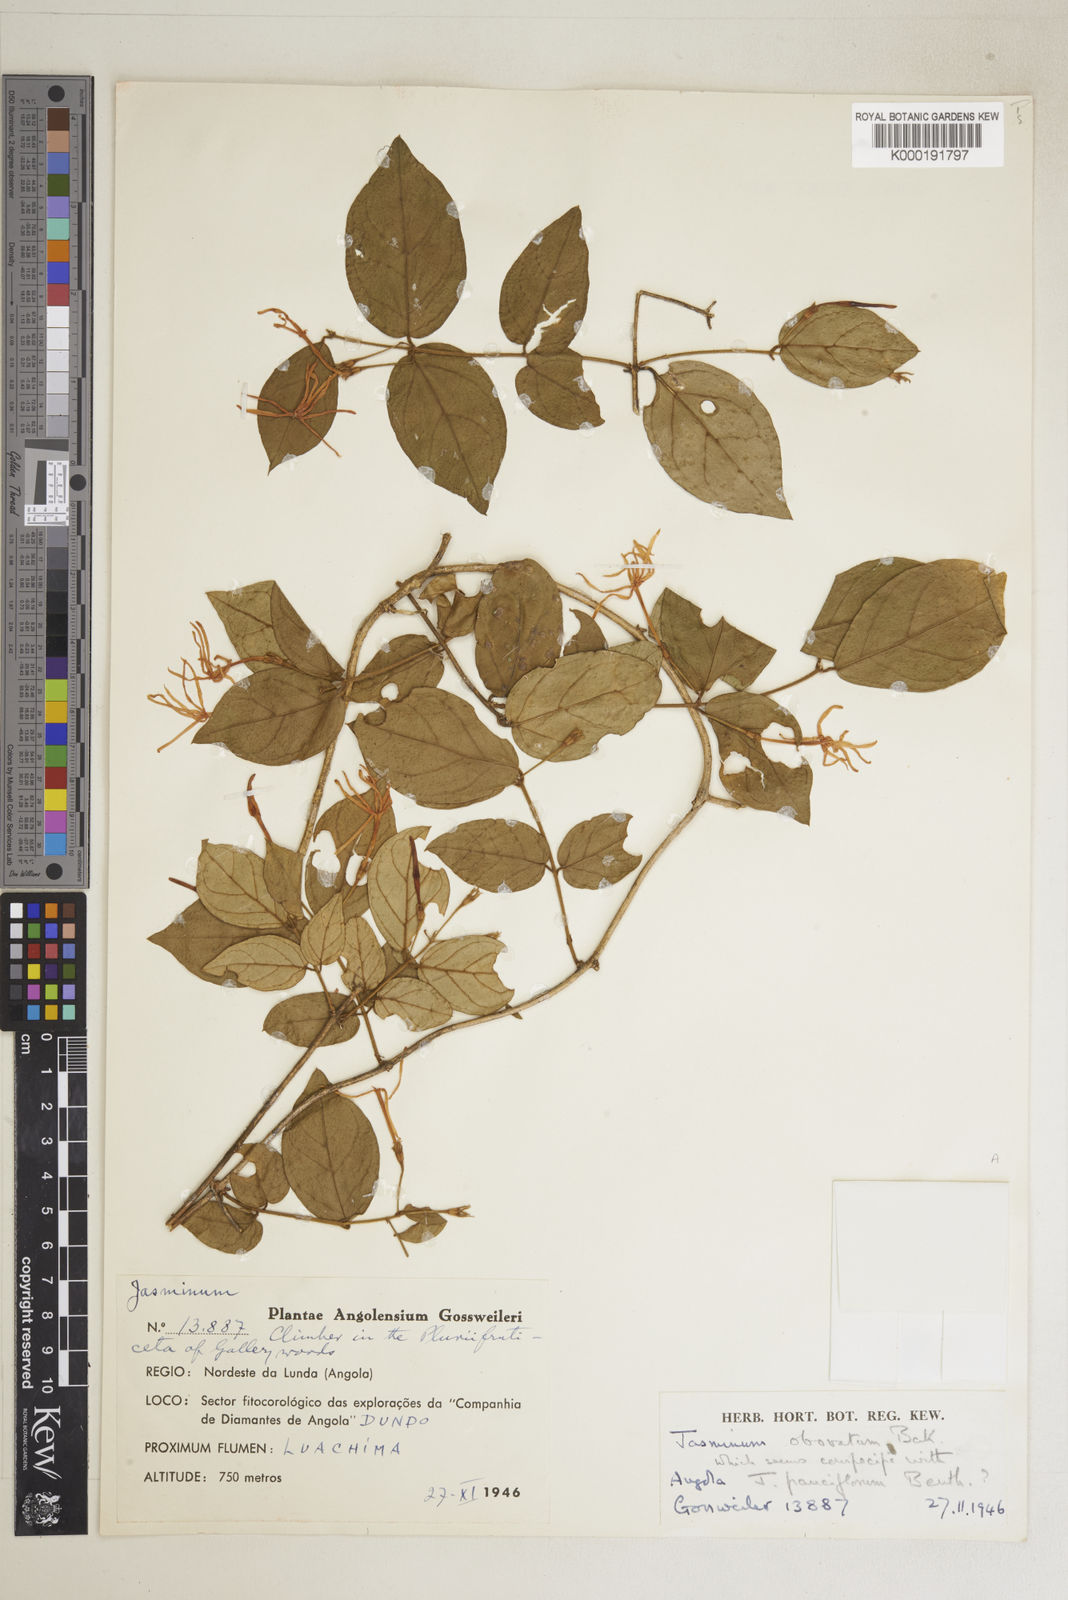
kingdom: Plantae
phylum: Tracheophyta
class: Magnoliopsida
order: Lamiales
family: Oleaceae
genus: Jasminum
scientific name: Jasminum pauciflorum
